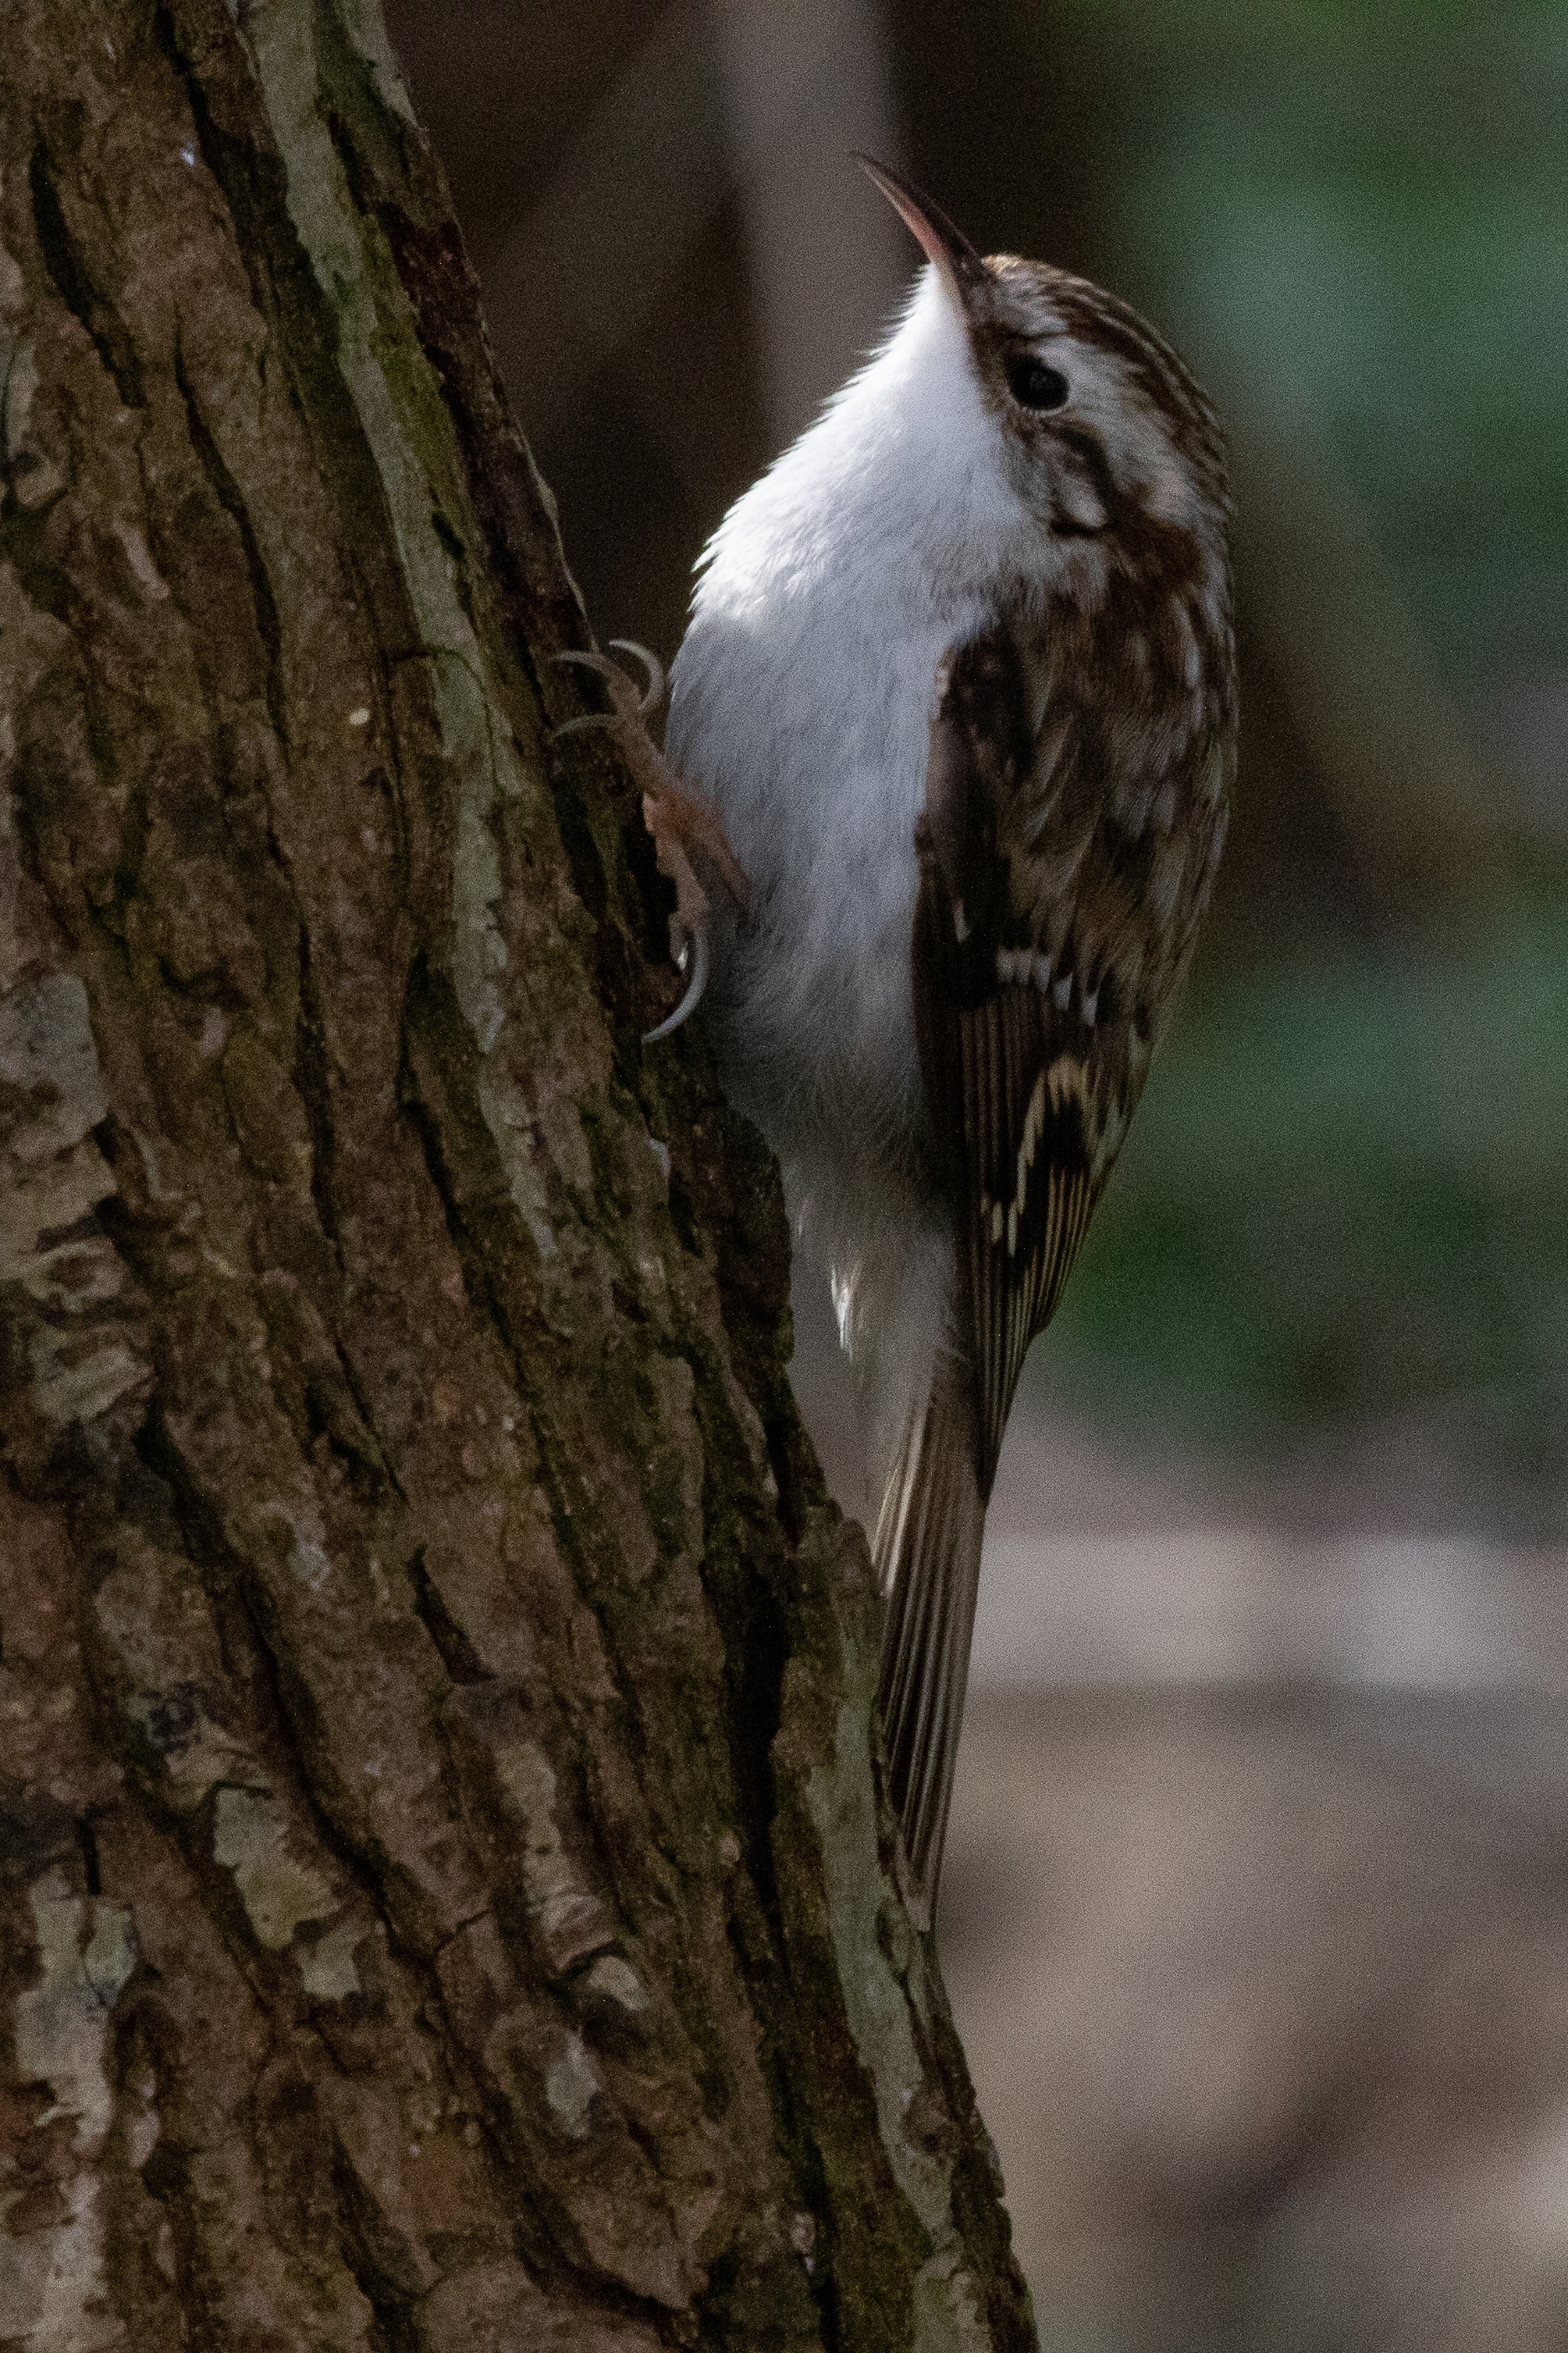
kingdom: Animalia
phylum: Chordata
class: Aves
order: Passeriformes
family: Certhiidae
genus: Certhia
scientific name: Certhia familiaris
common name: Træløber
